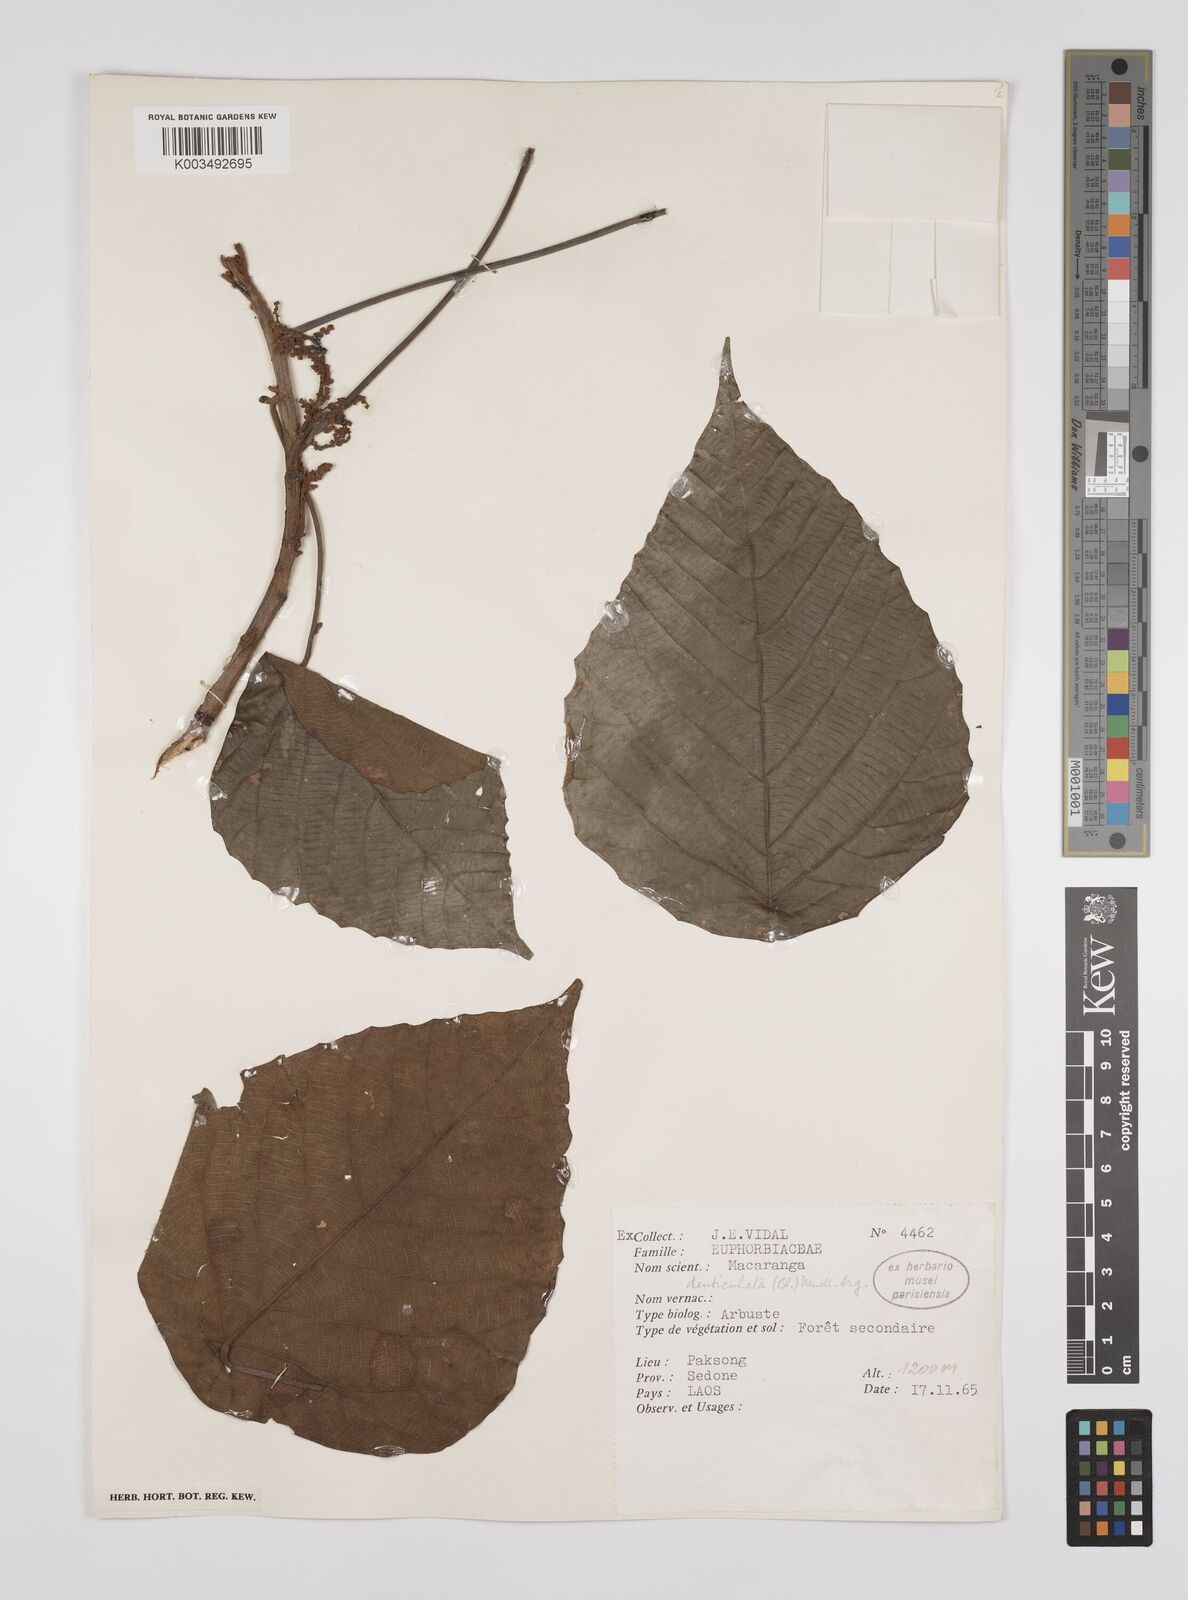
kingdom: Plantae
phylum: Tracheophyta
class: Magnoliopsida
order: Malpighiales
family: Euphorbiaceae
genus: Macaranga
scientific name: Macaranga denticulata
